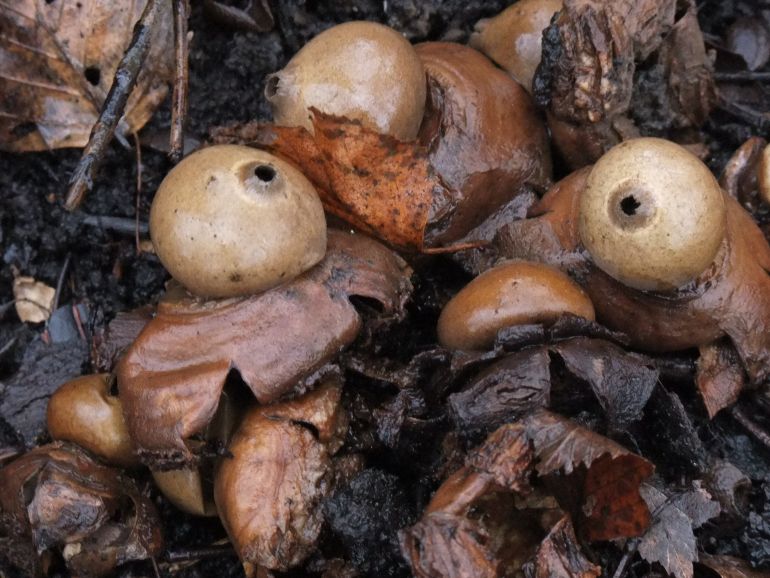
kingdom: Fungi
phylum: Basidiomycota
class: Agaricomycetes
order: Geastrales
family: Geastraceae
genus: Geastrum
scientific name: Geastrum michelianum
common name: kødet stjernebold
